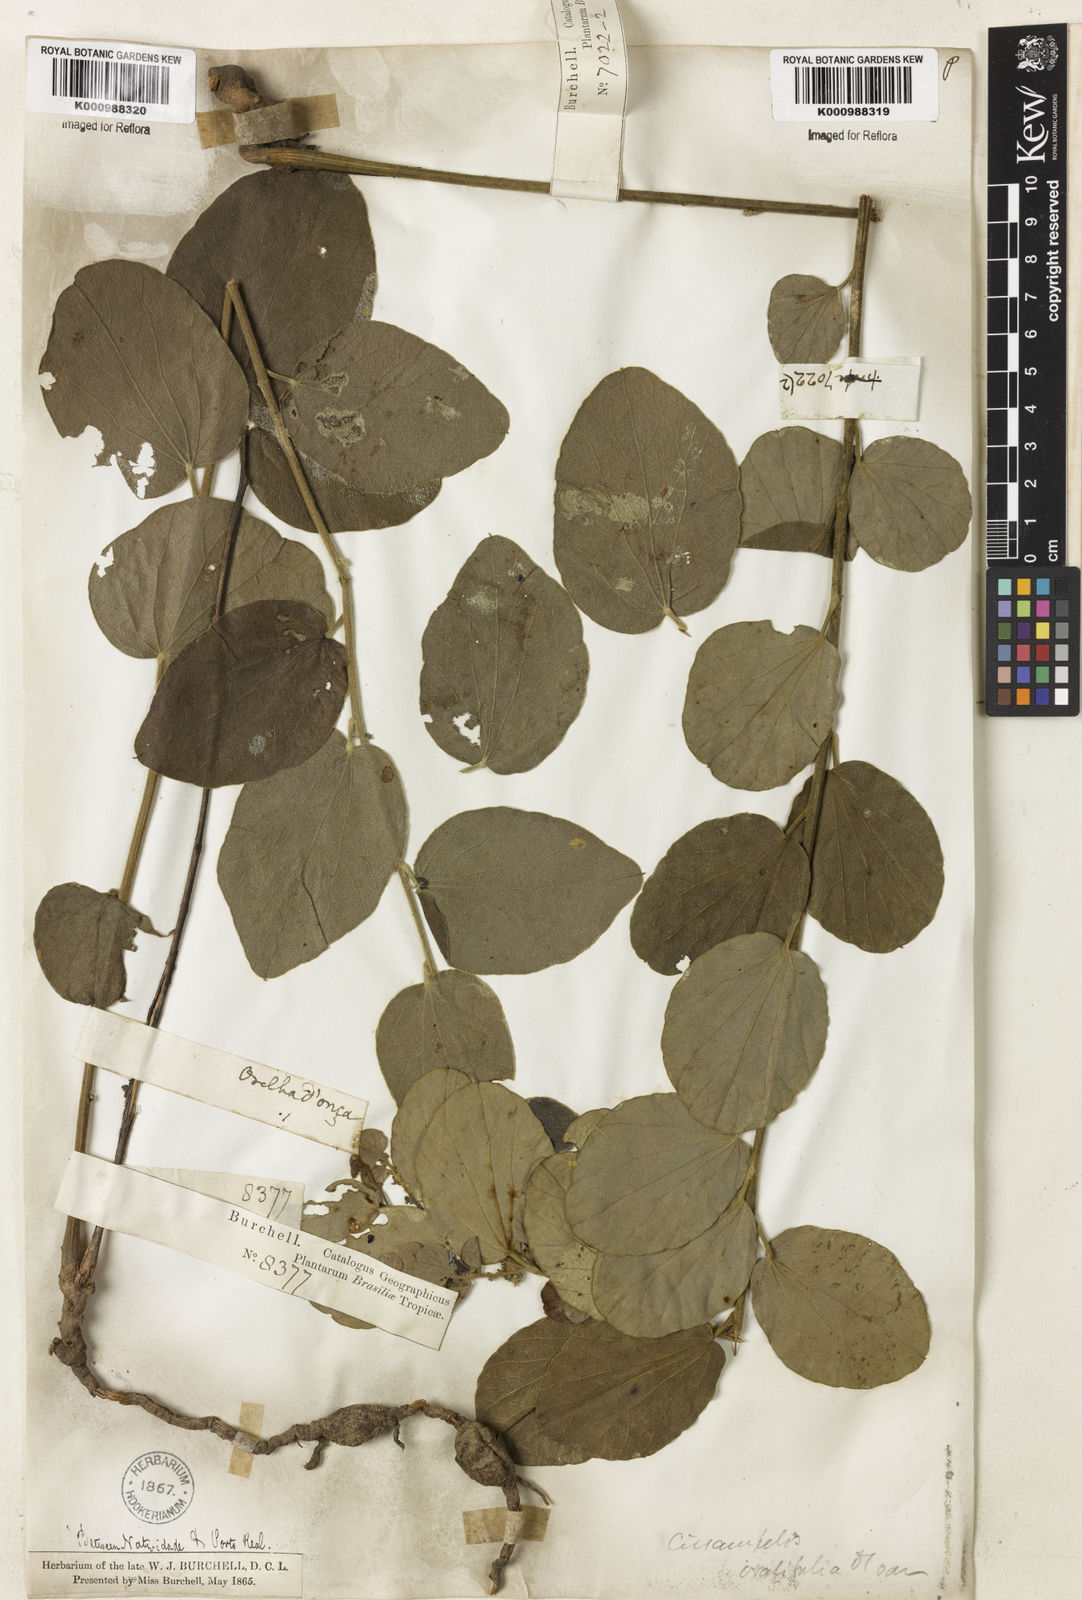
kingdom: Plantae
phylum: Tracheophyta
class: Magnoliopsida
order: Ranunculales
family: Menispermaceae
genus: Cissampelos
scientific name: Cissampelos ovalifolia
